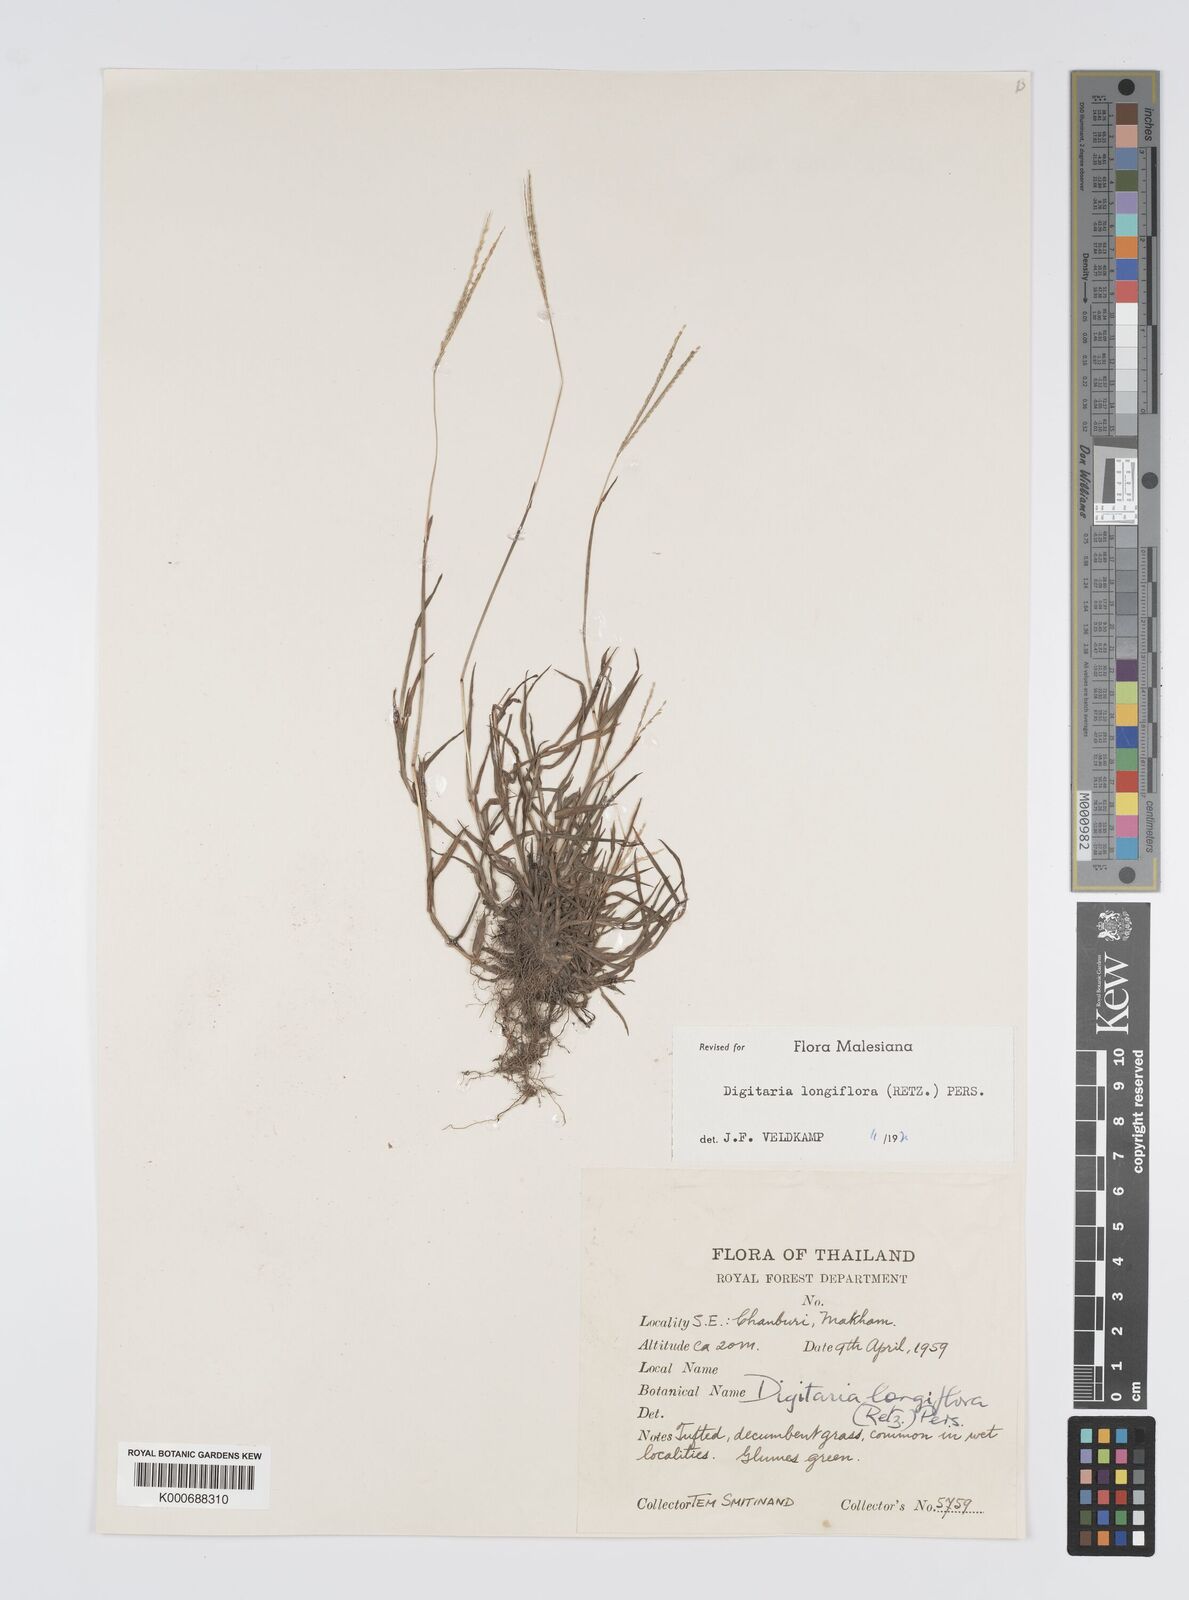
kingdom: Plantae
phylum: Tracheophyta
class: Liliopsida
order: Poales
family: Poaceae
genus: Digitaria
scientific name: Digitaria longiflora
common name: Wire crabgrass
